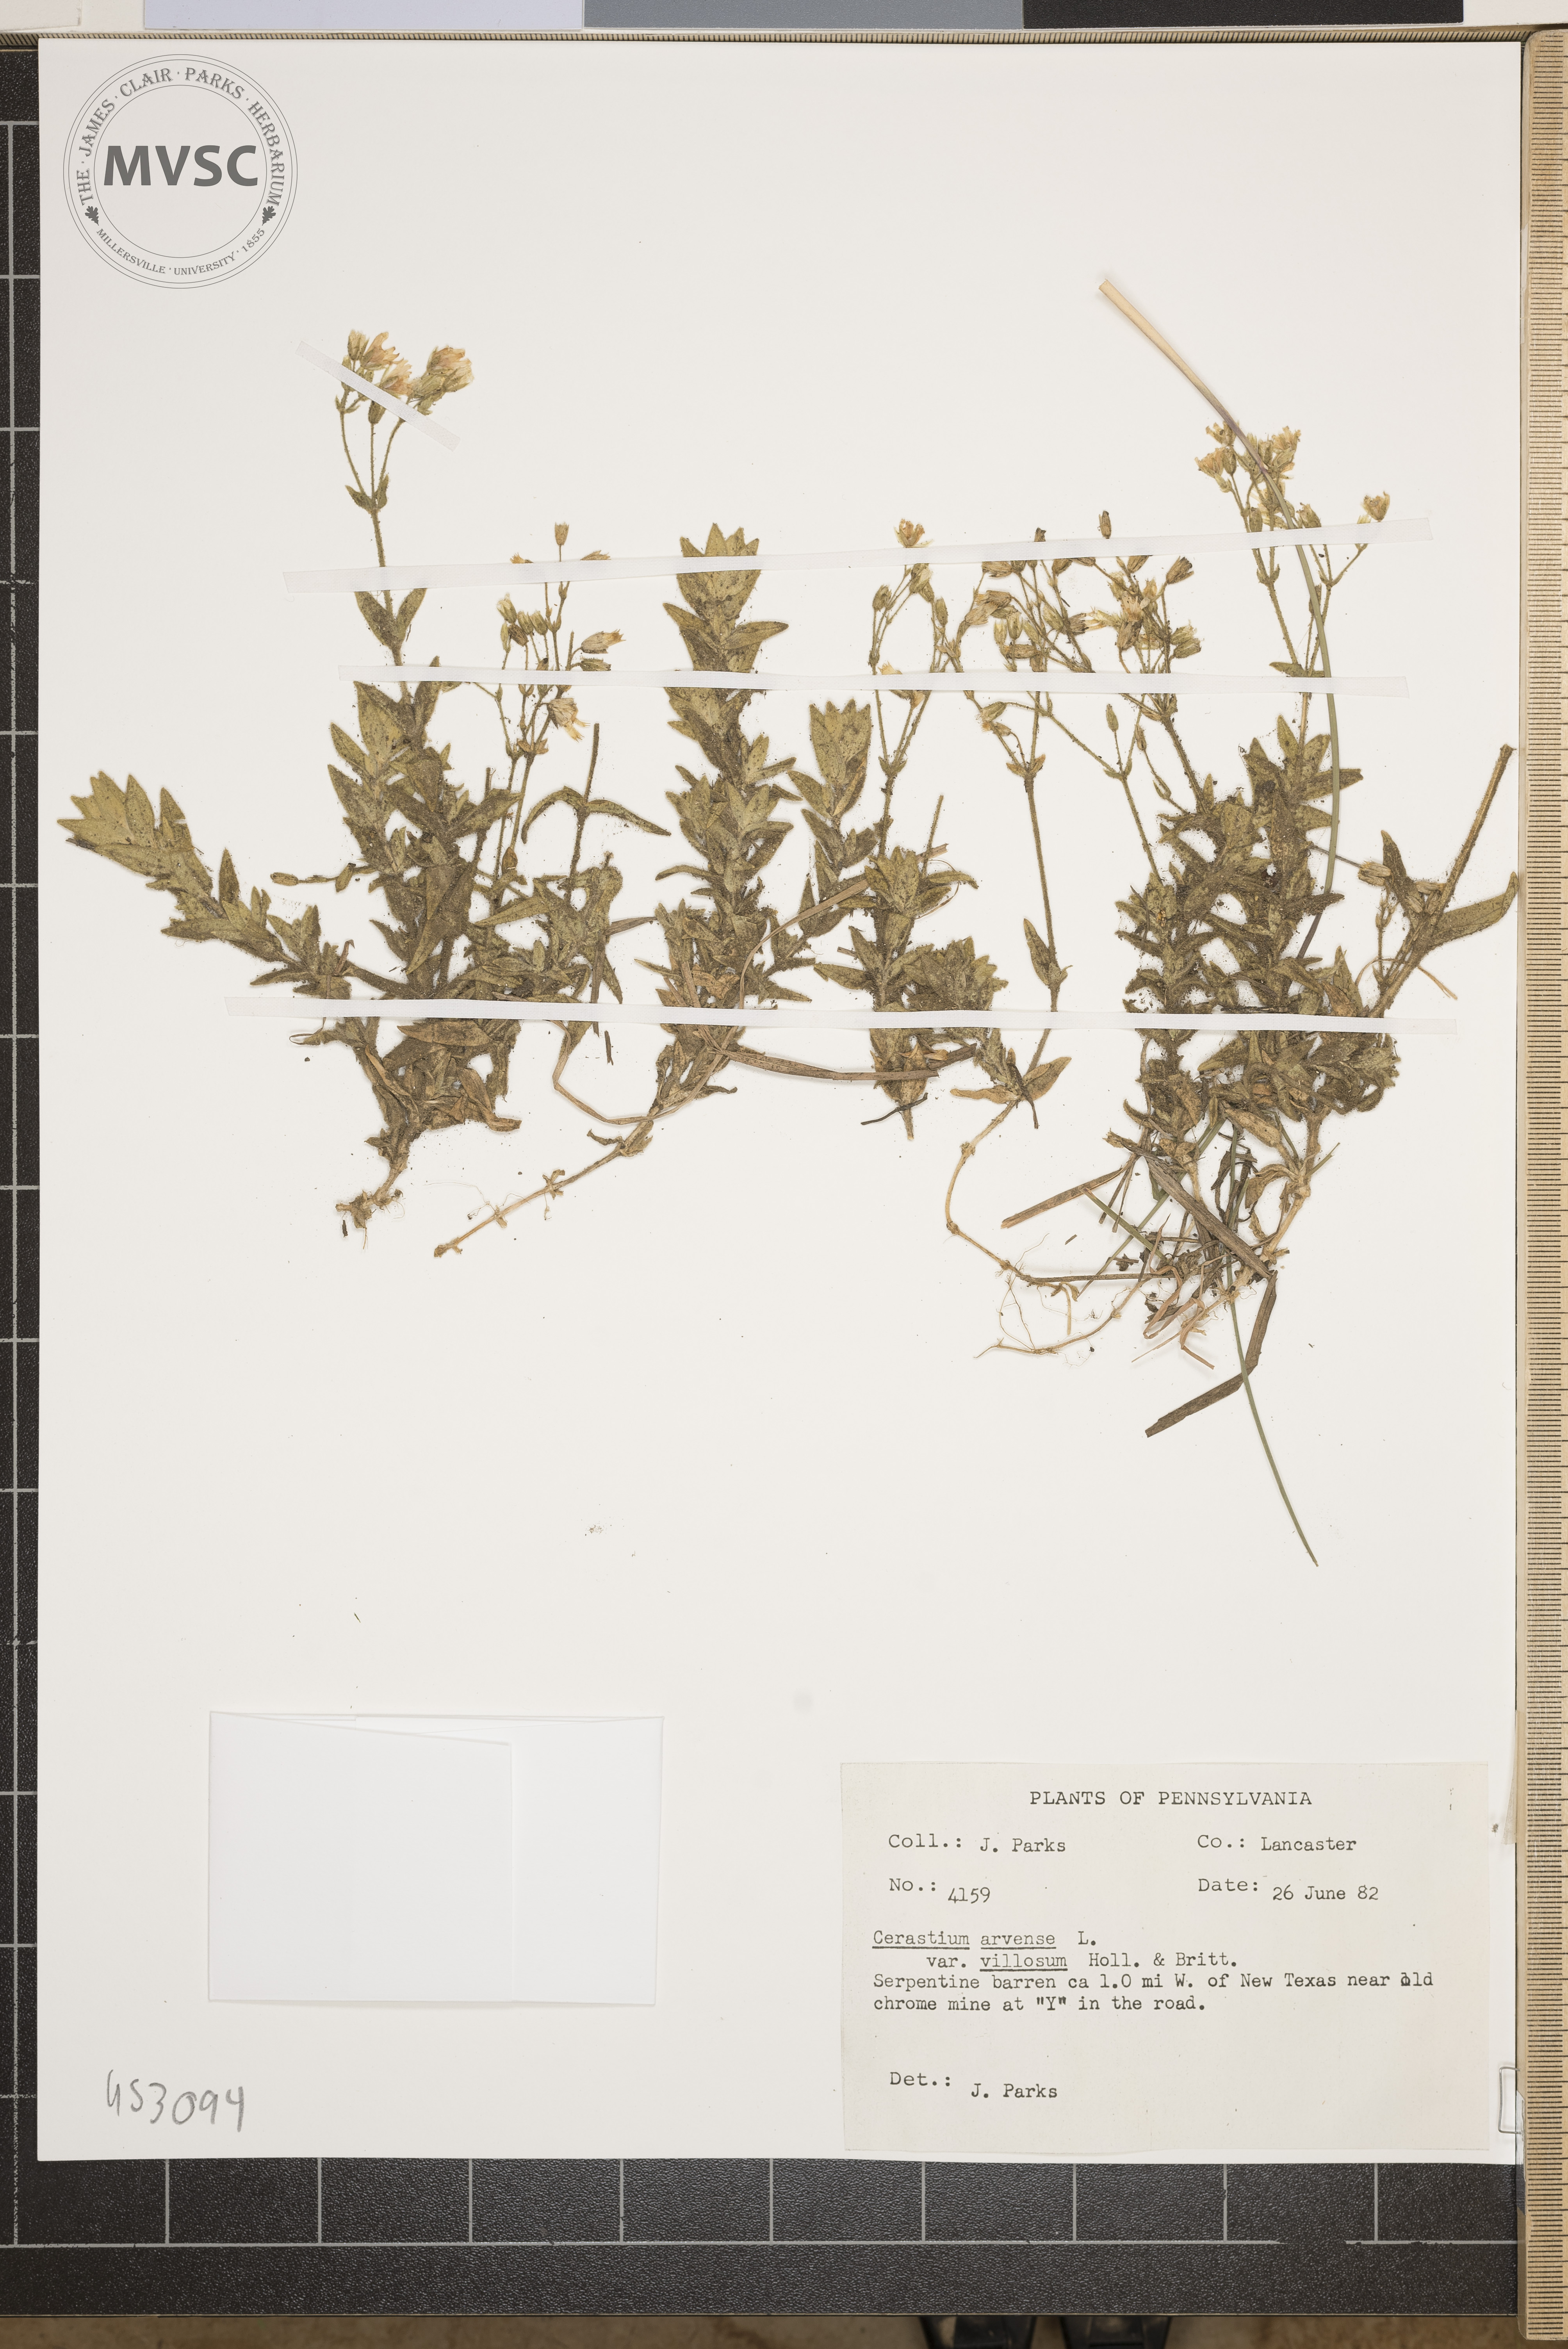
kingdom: Plantae
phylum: Tracheophyta
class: Magnoliopsida
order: Caryophyllales
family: Caryophyllaceae
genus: Cerastium
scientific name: Cerastium arvense
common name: Field mouse-ear
